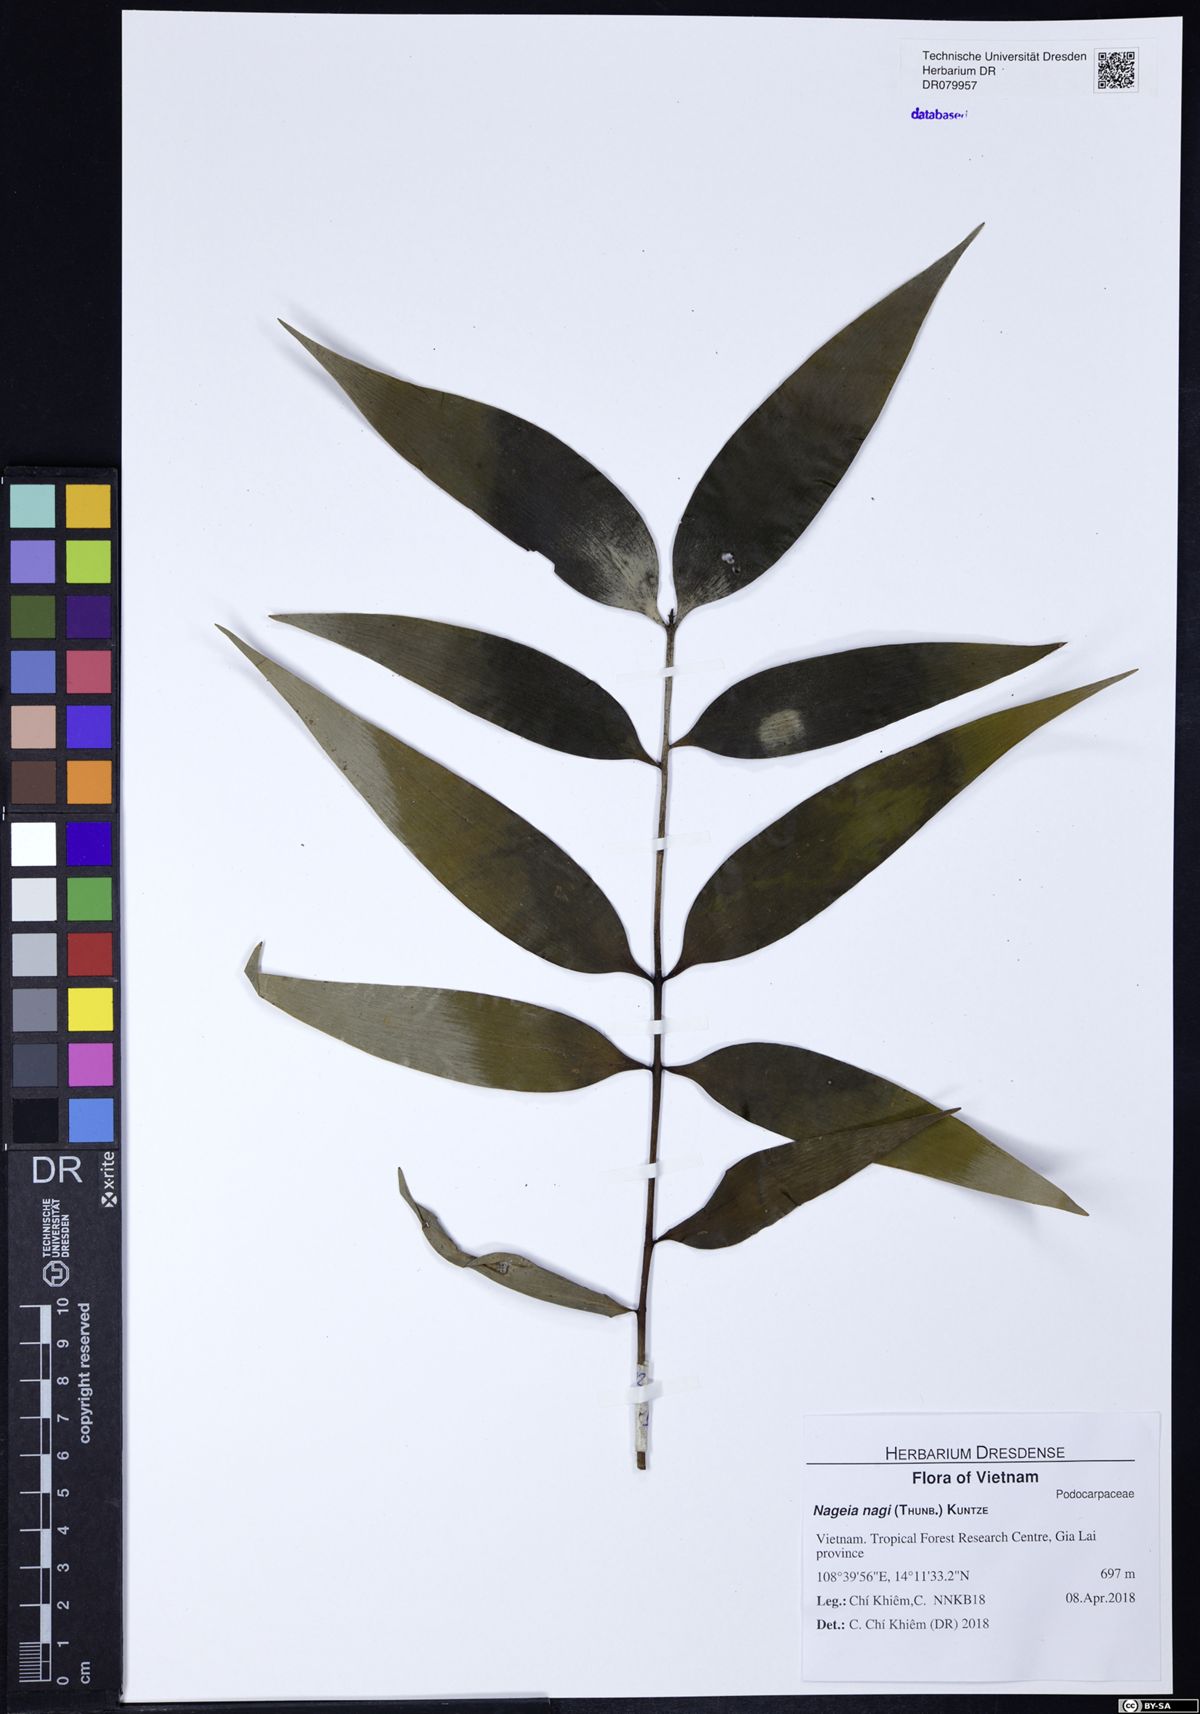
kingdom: Plantae
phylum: Tracheophyta
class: Pinopsida
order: Pinales
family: Podocarpaceae
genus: Nageia
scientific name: Nageia nagi
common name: Kaphal
